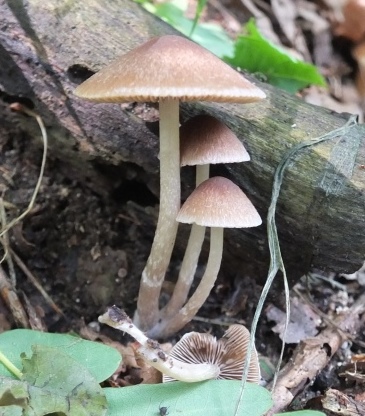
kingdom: Fungi
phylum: Basidiomycota
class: Agaricomycetes
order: Agaricales
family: Psathyrellaceae
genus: Psathyrella
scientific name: Psathyrella
